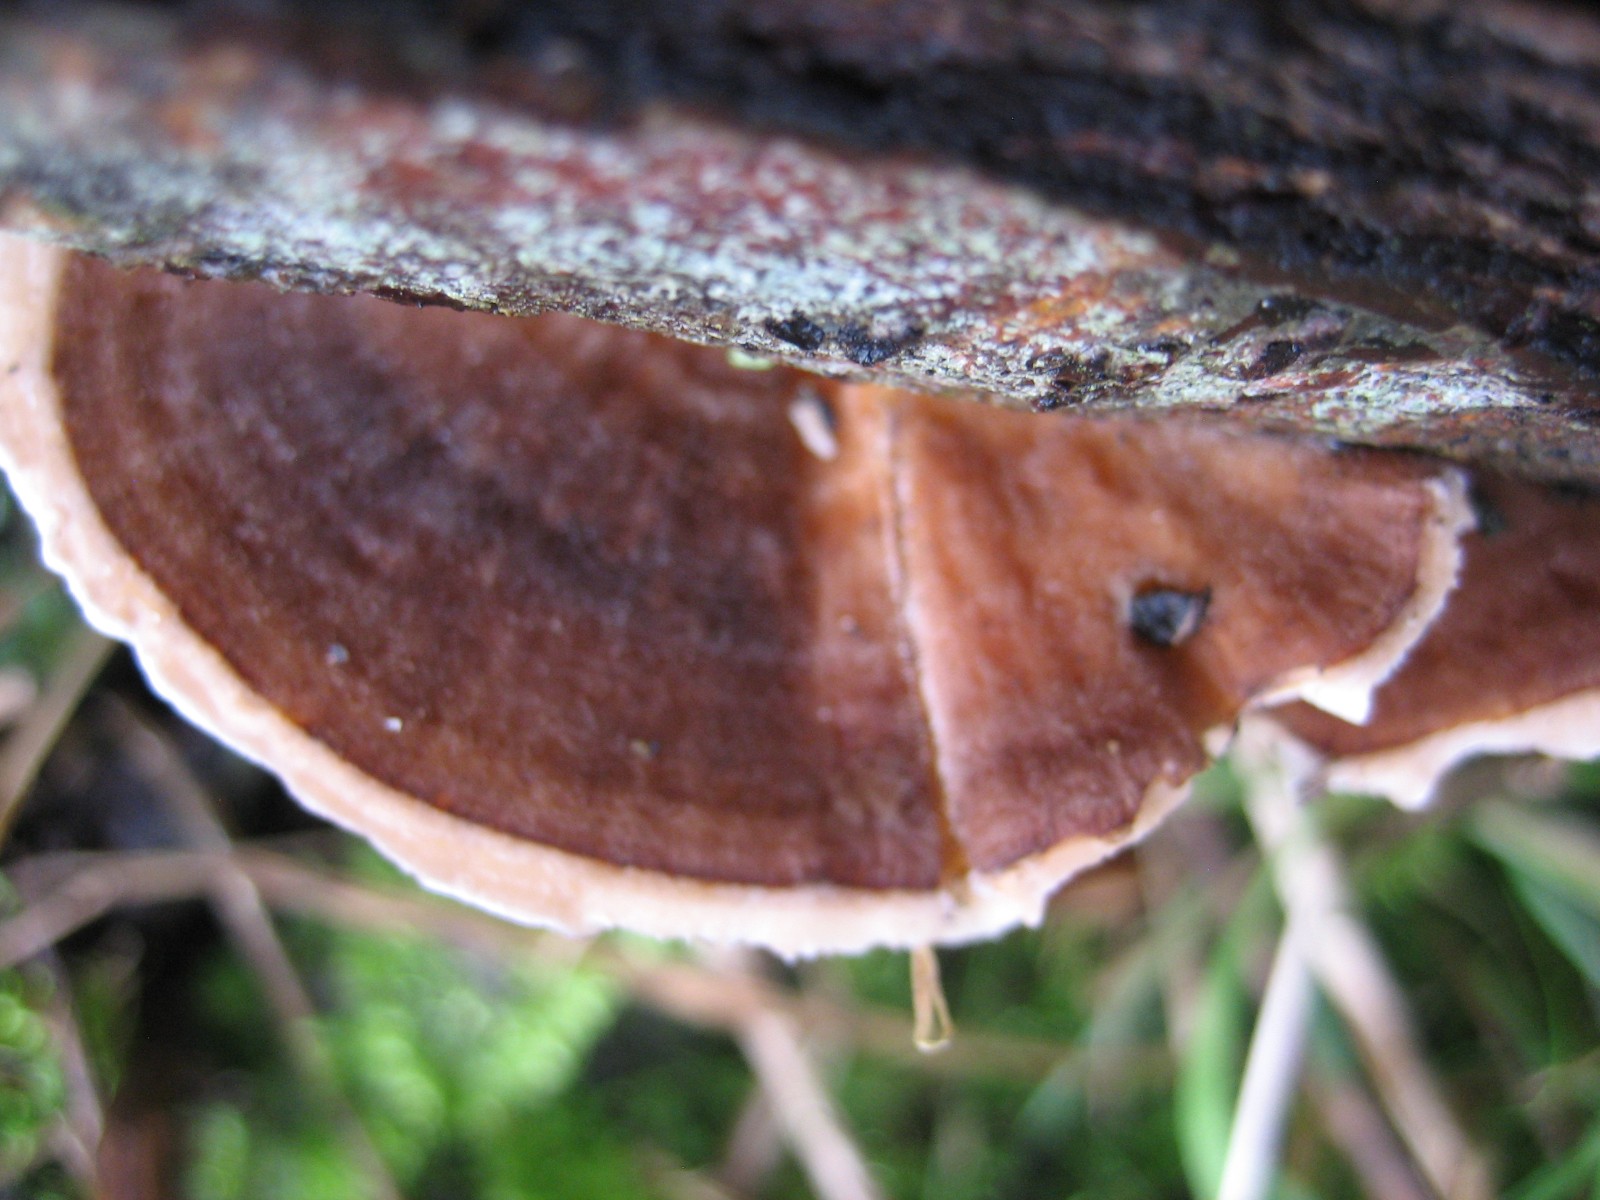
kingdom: Fungi
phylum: Basidiomycota
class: Agaricomycetes
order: Polyporales
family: Polyporaceae
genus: Trametes
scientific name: Trametes versicolor
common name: broget læderporesvamp
